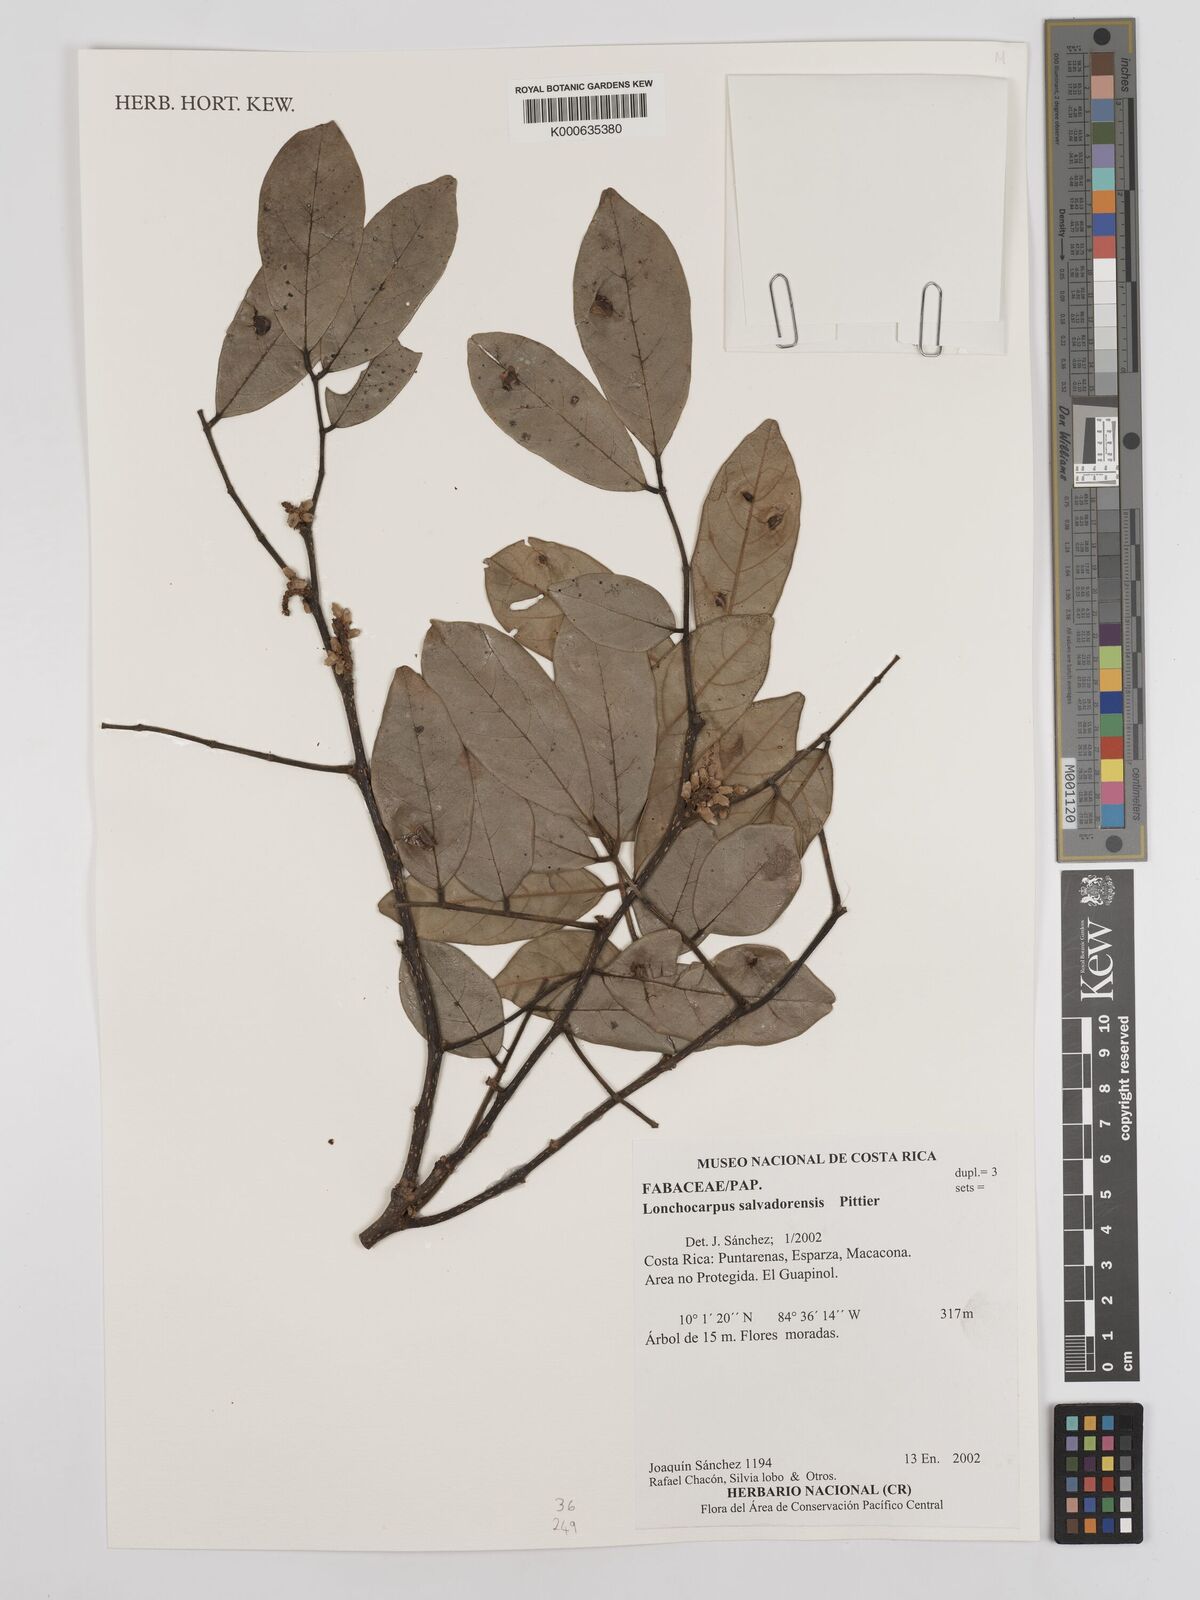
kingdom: Plantae
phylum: Tracheophyta
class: Magnoliopsida
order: Fabales
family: Fabaceae
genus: Lonchocarpus
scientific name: Lonchocarpus salvadorensis
